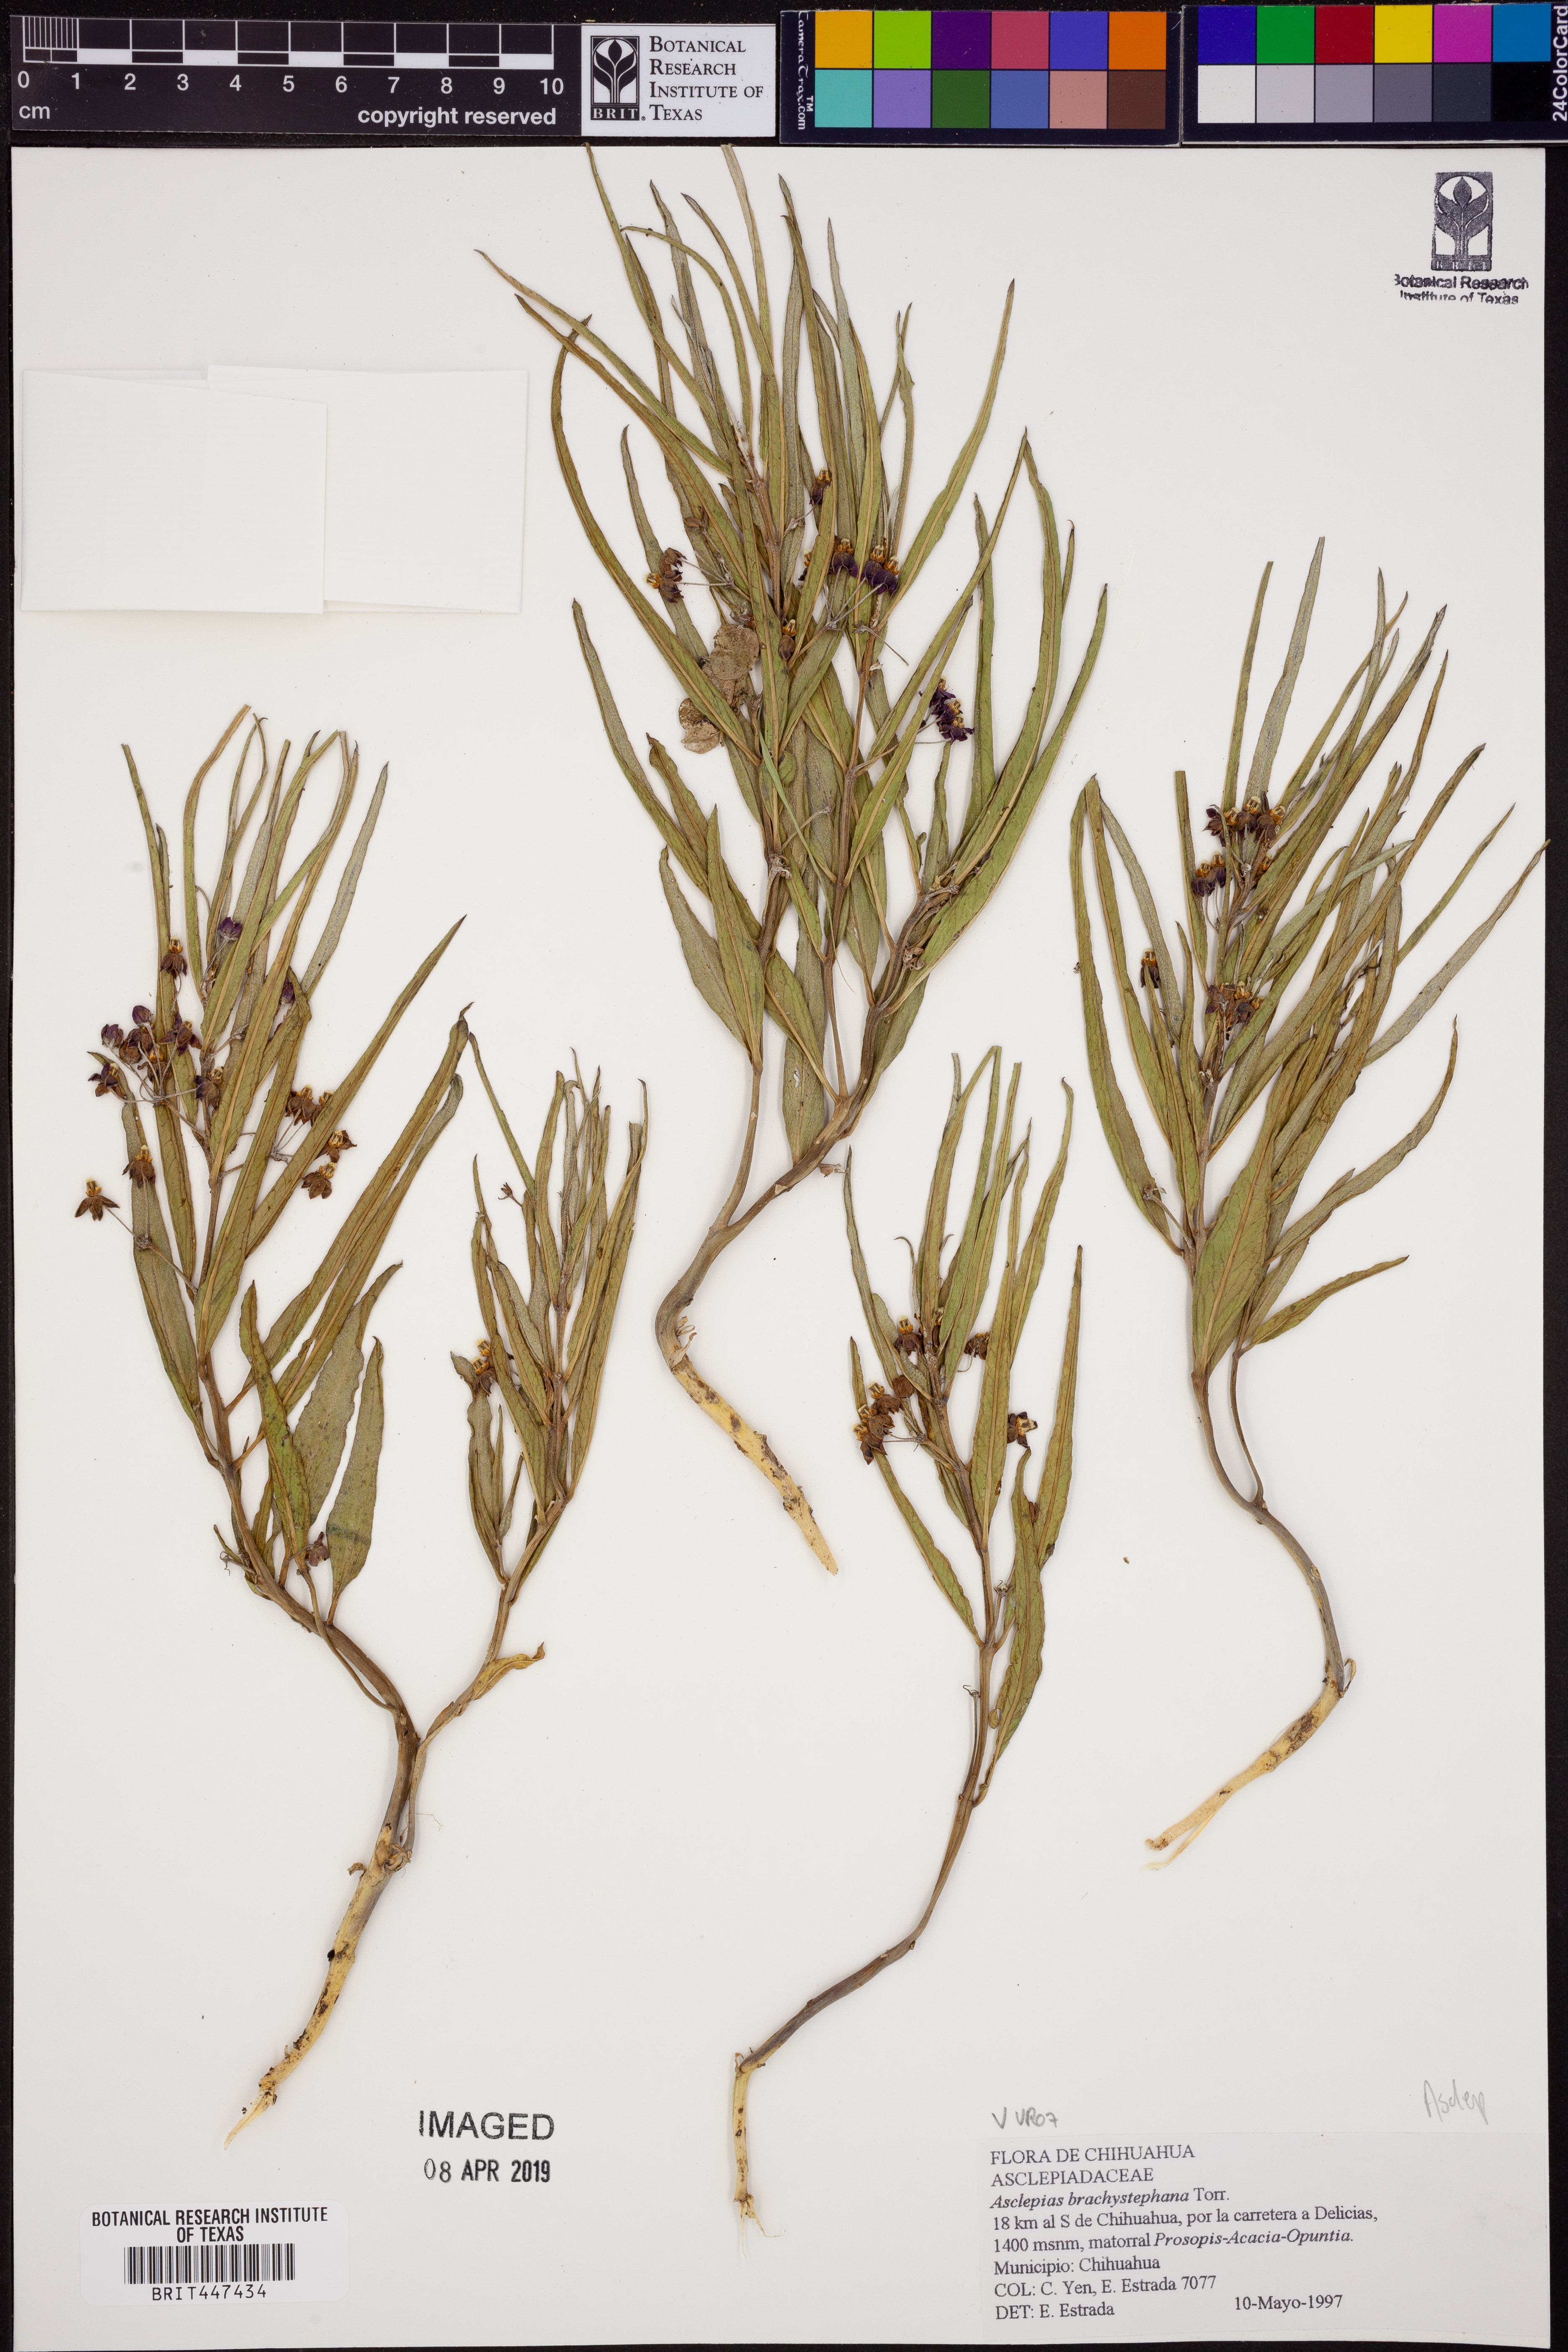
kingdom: Plantae
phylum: Tracheophyta
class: Magnoliopsida
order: Gentianales
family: Apocynaceae
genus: Asclepias
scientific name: Asclepias brachystephana
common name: Shortcrown milkweed
